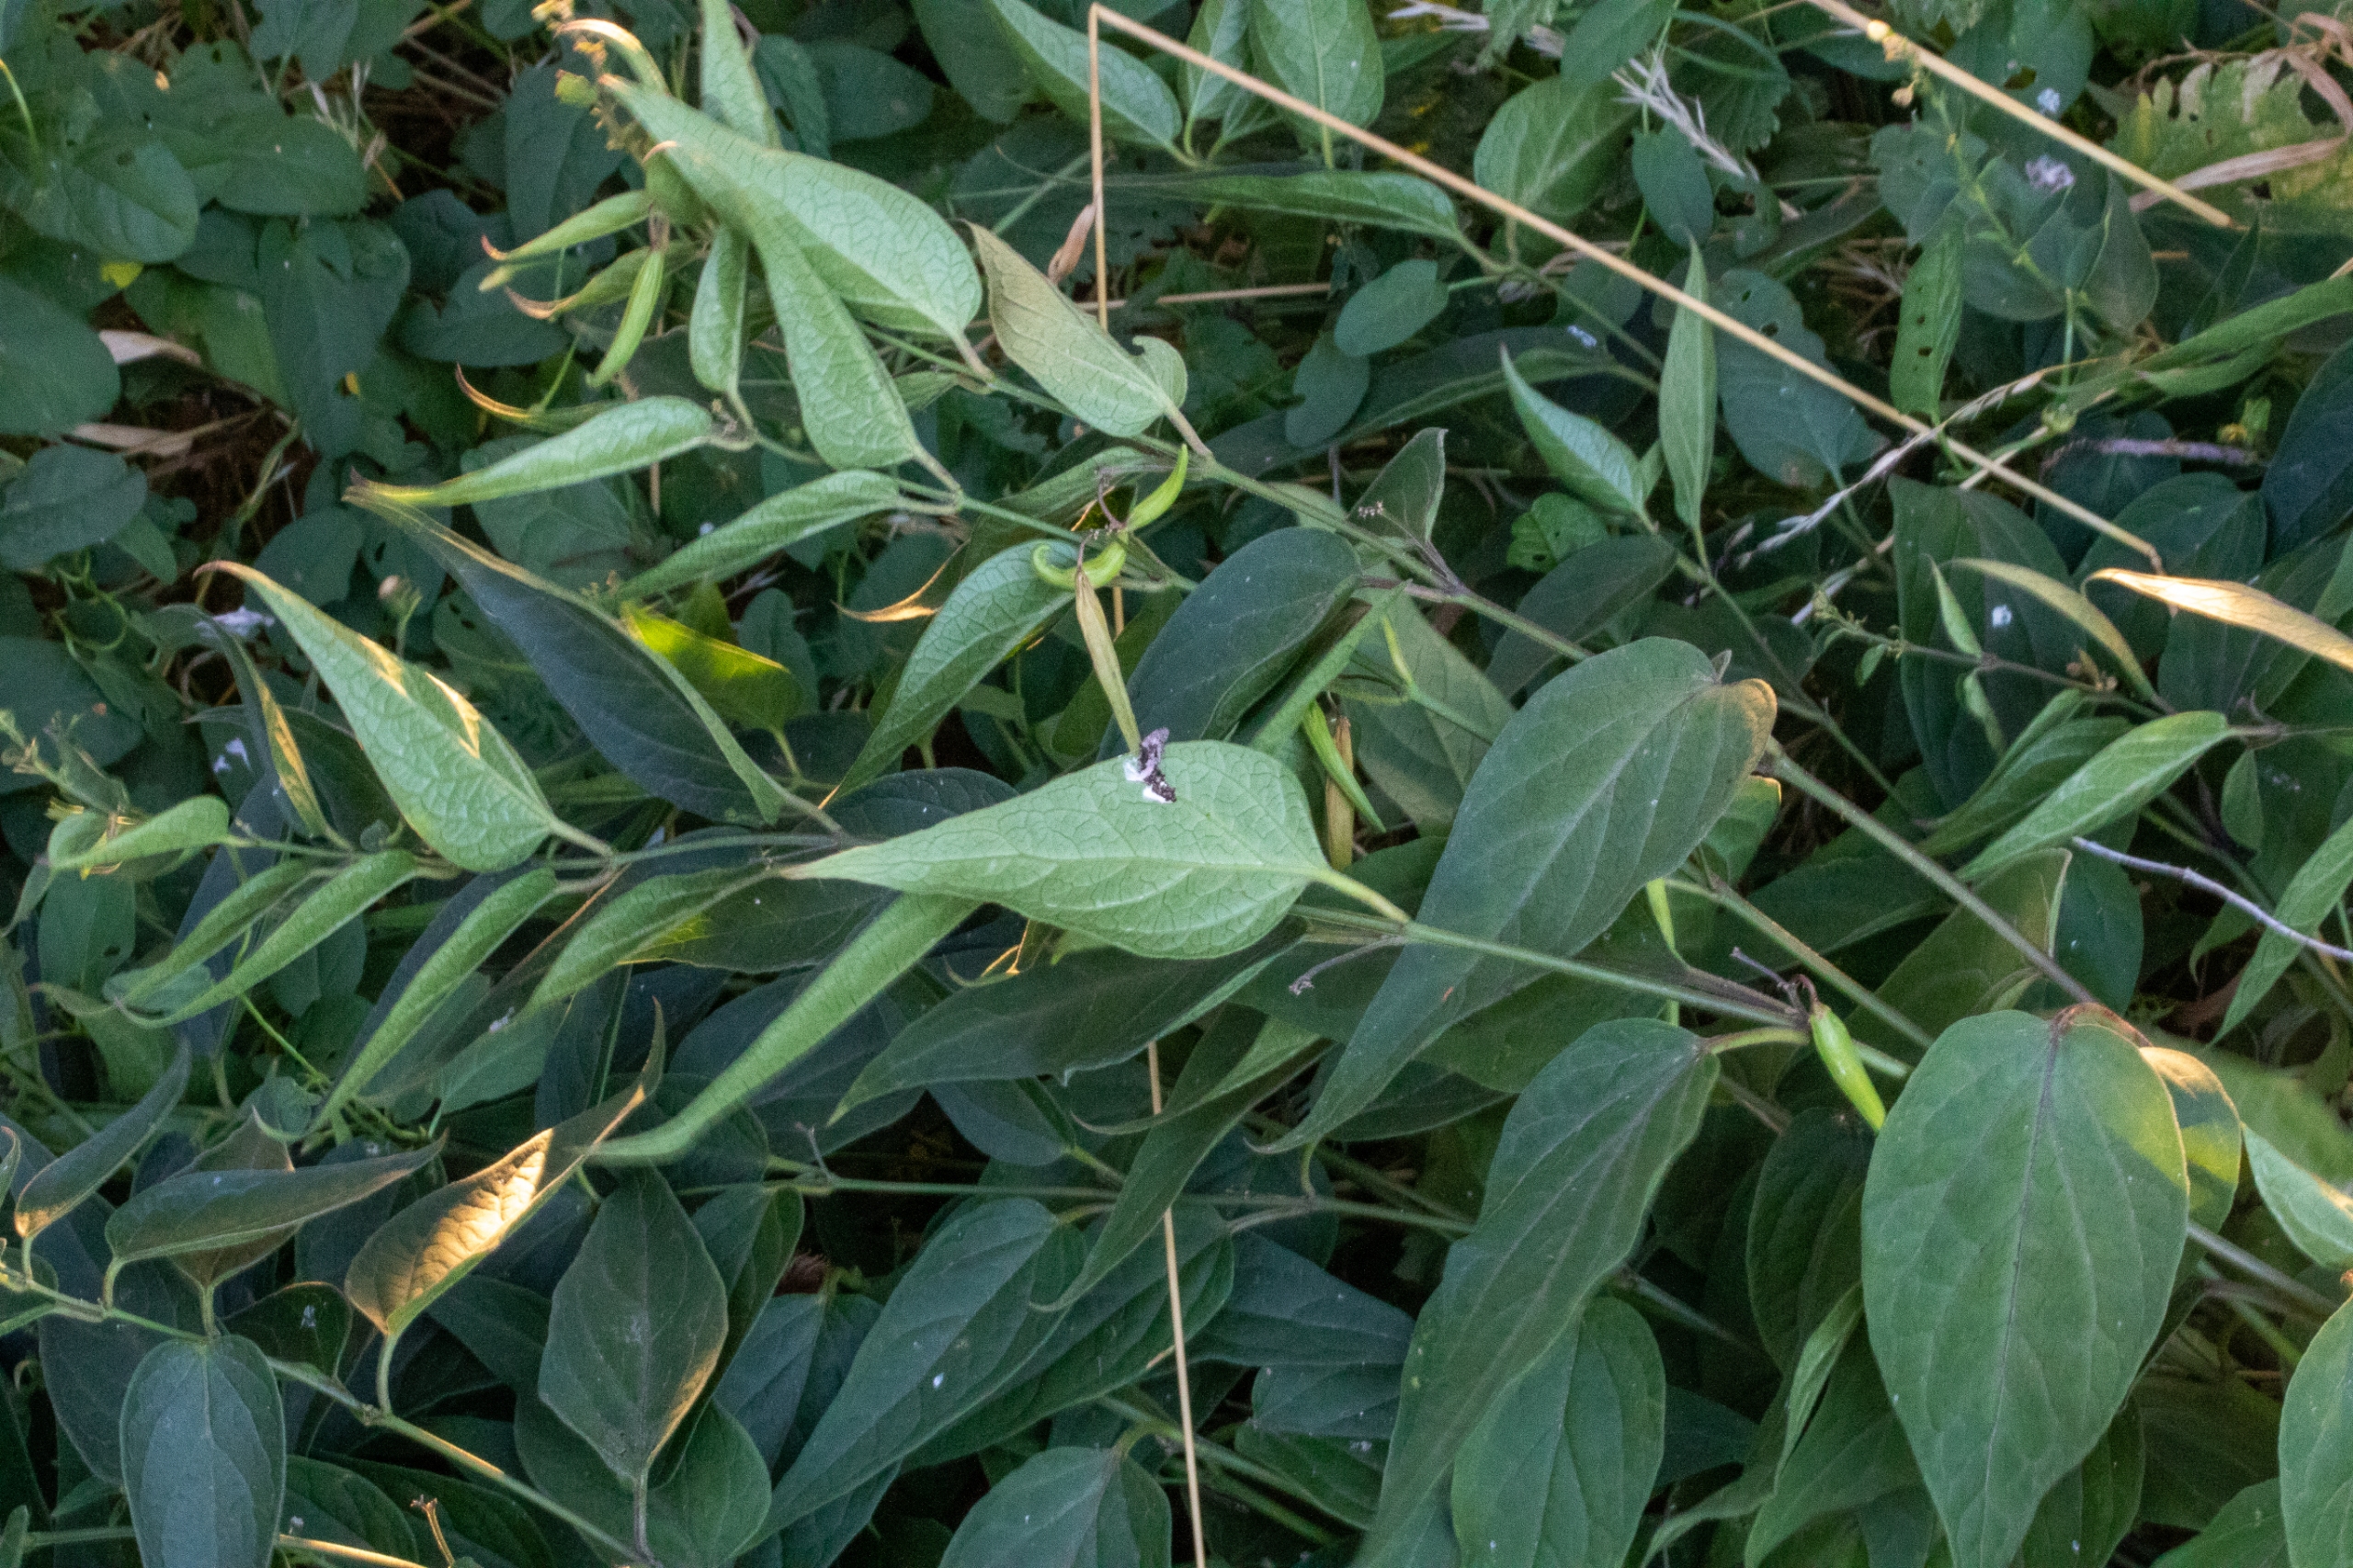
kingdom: Plantae
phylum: Tracheophyta
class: Magnoliopsida
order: Gentianales
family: Apocynaceae
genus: Vincetoxicum
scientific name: Vincetoxicum hirundinaria
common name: Svalerod
